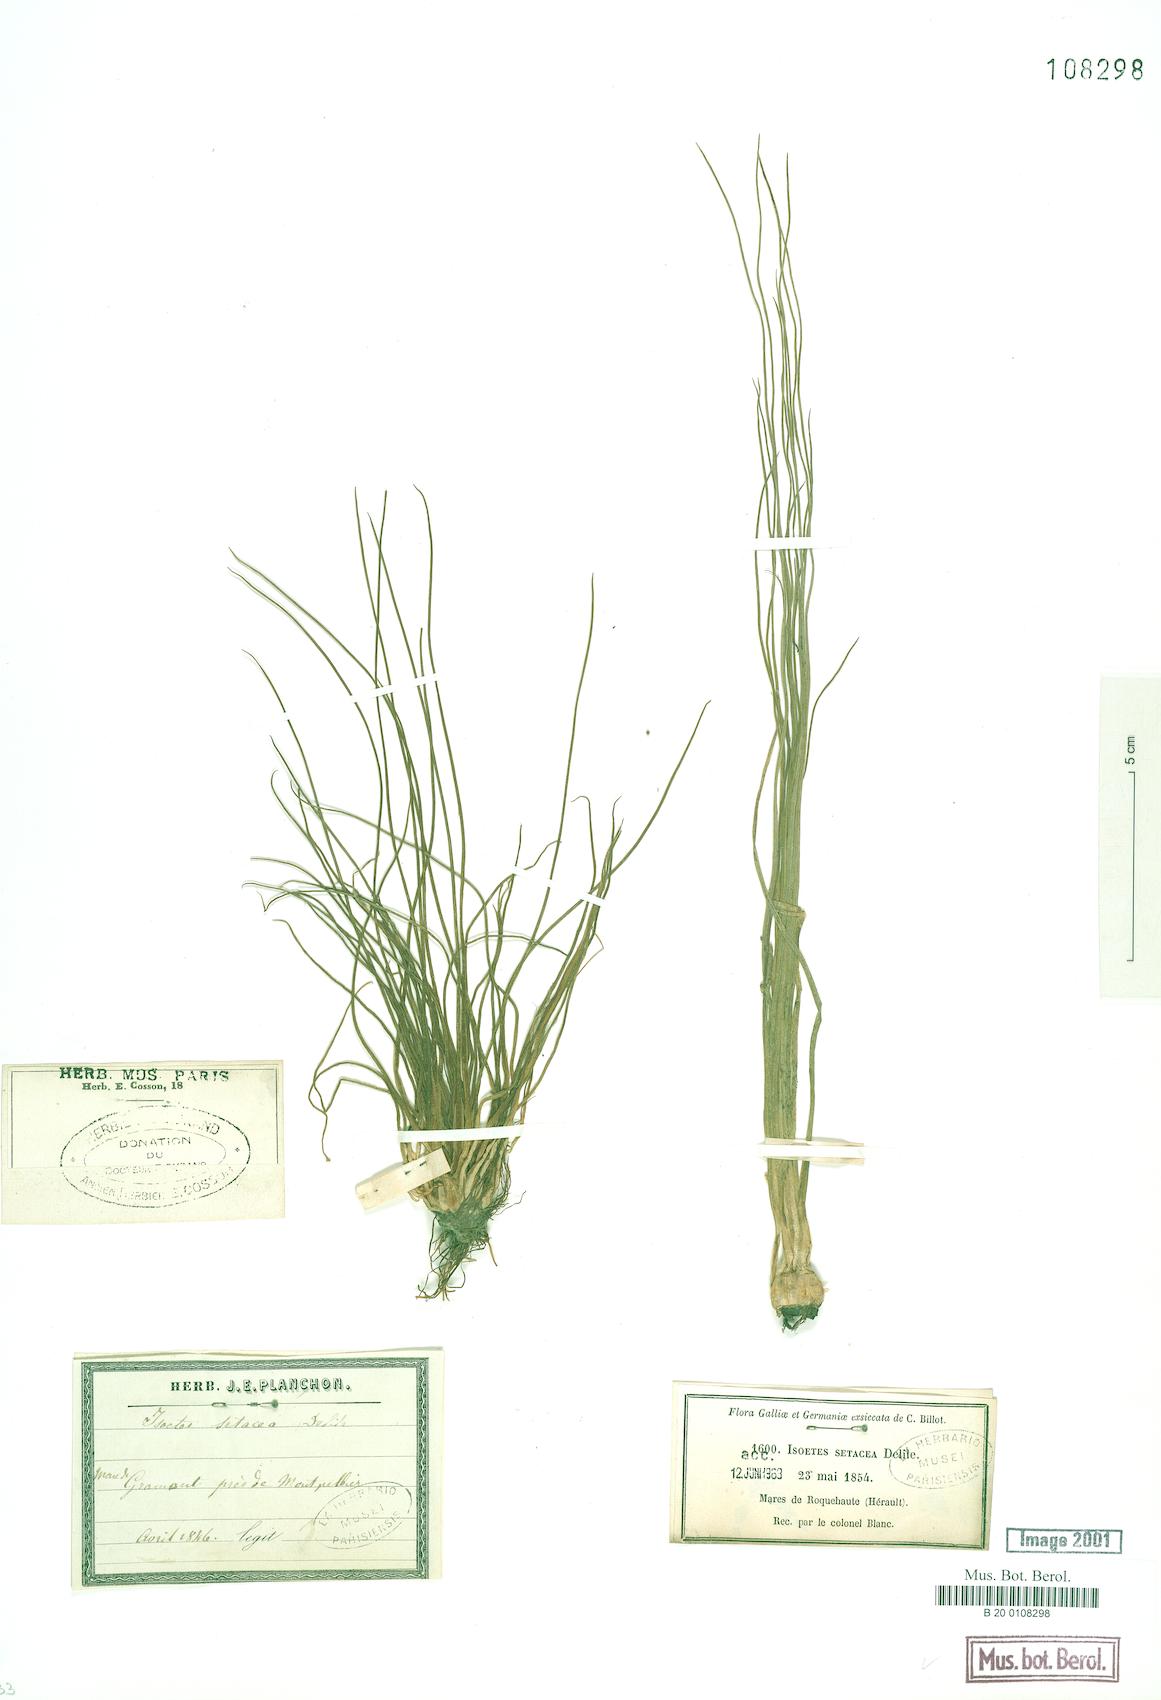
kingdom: Plantae
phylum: Tracheophyta
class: Lycopodiopsida
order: Isoetales
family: Isoetaceae
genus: Isoetes
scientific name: Isoetes lacustris
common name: Common quillwort
